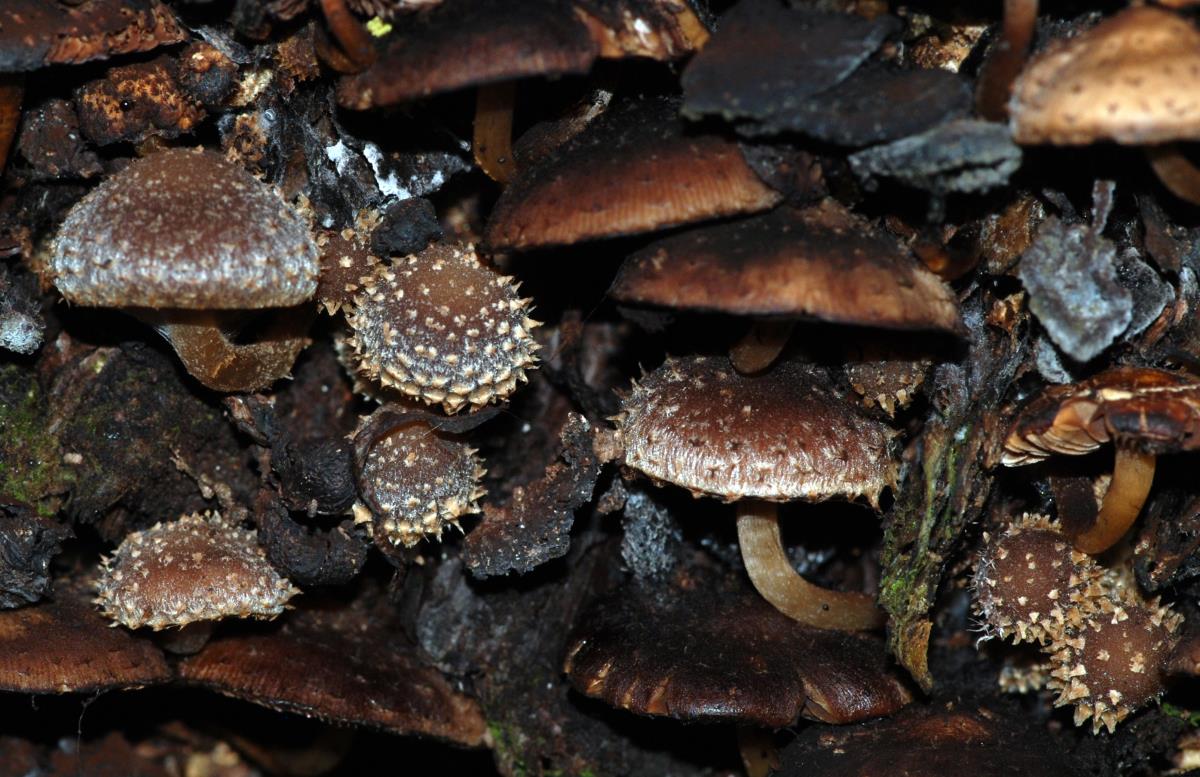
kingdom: Fungi
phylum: Basidiomycota
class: Agaricomycetes
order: Agaricales
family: Psathyrellaceae
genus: Psathyrella
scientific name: Psathyrella echinata
